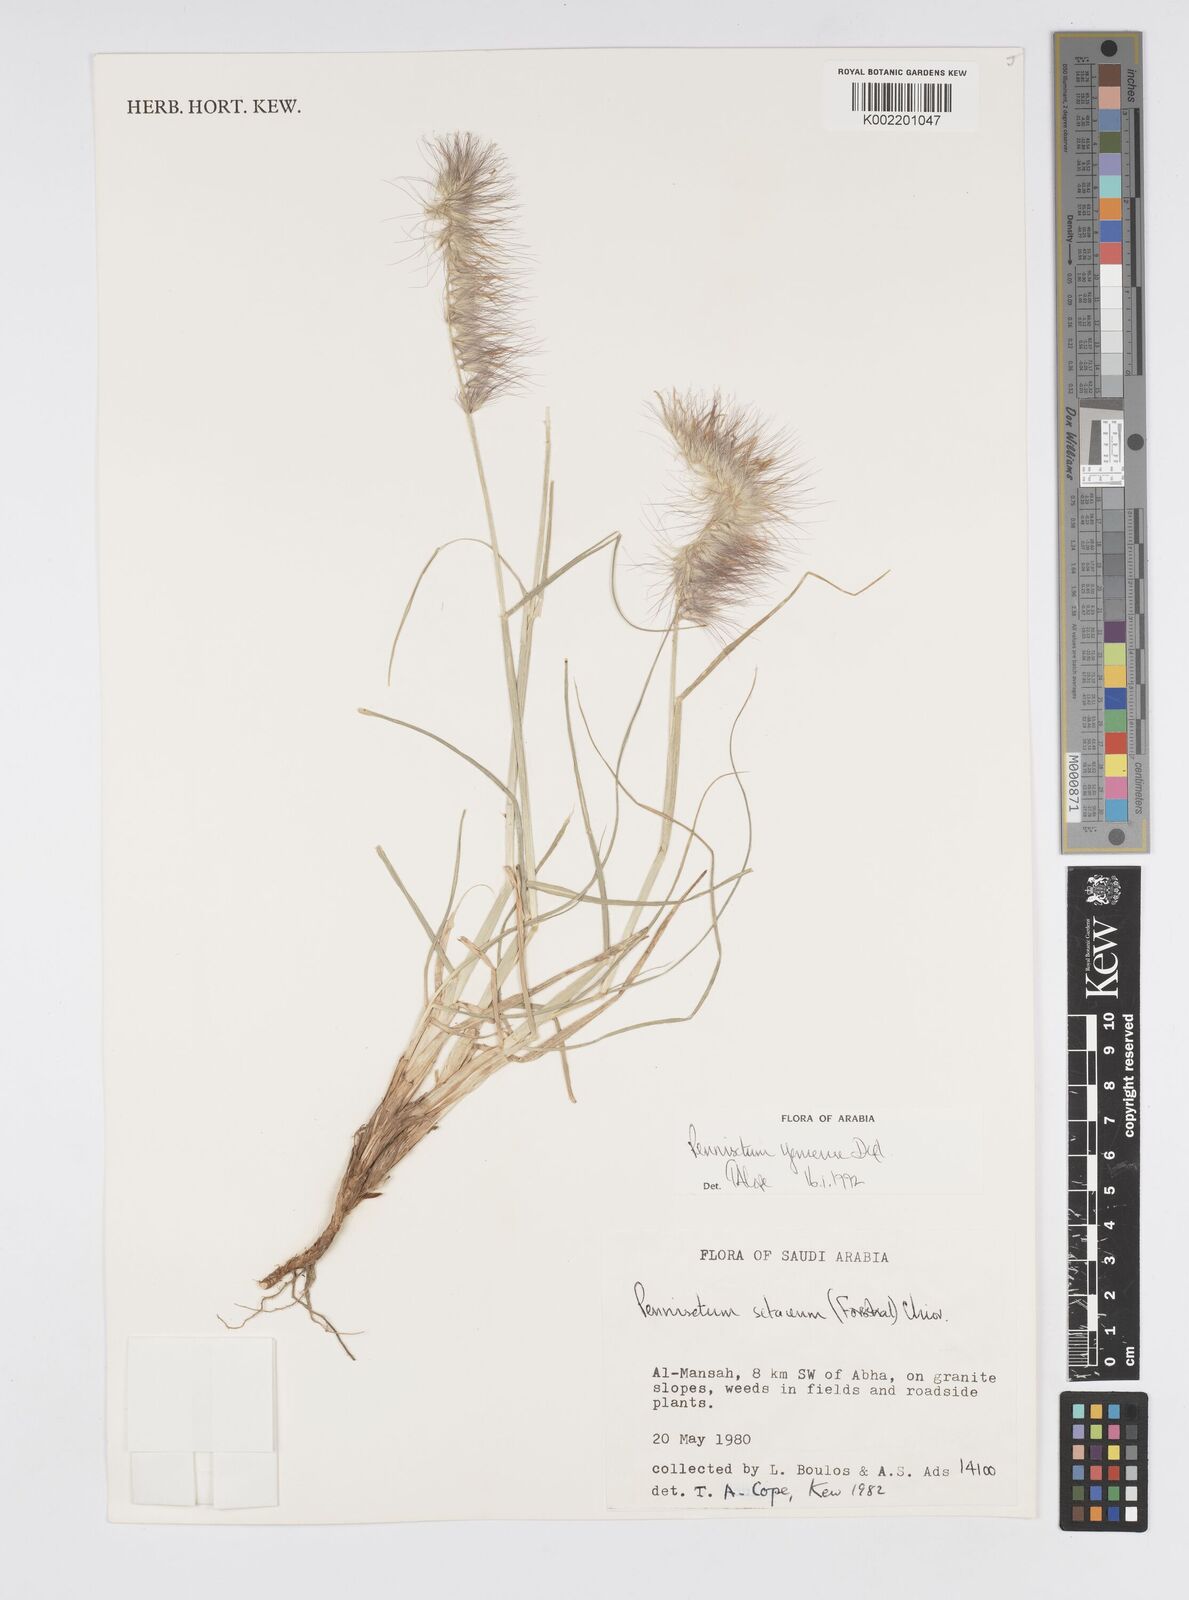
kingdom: Plantae
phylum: Tracheophyta
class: Liliopsida
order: Poales
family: Poaceae
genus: Cenchrus
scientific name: Cenchrus yemensis
